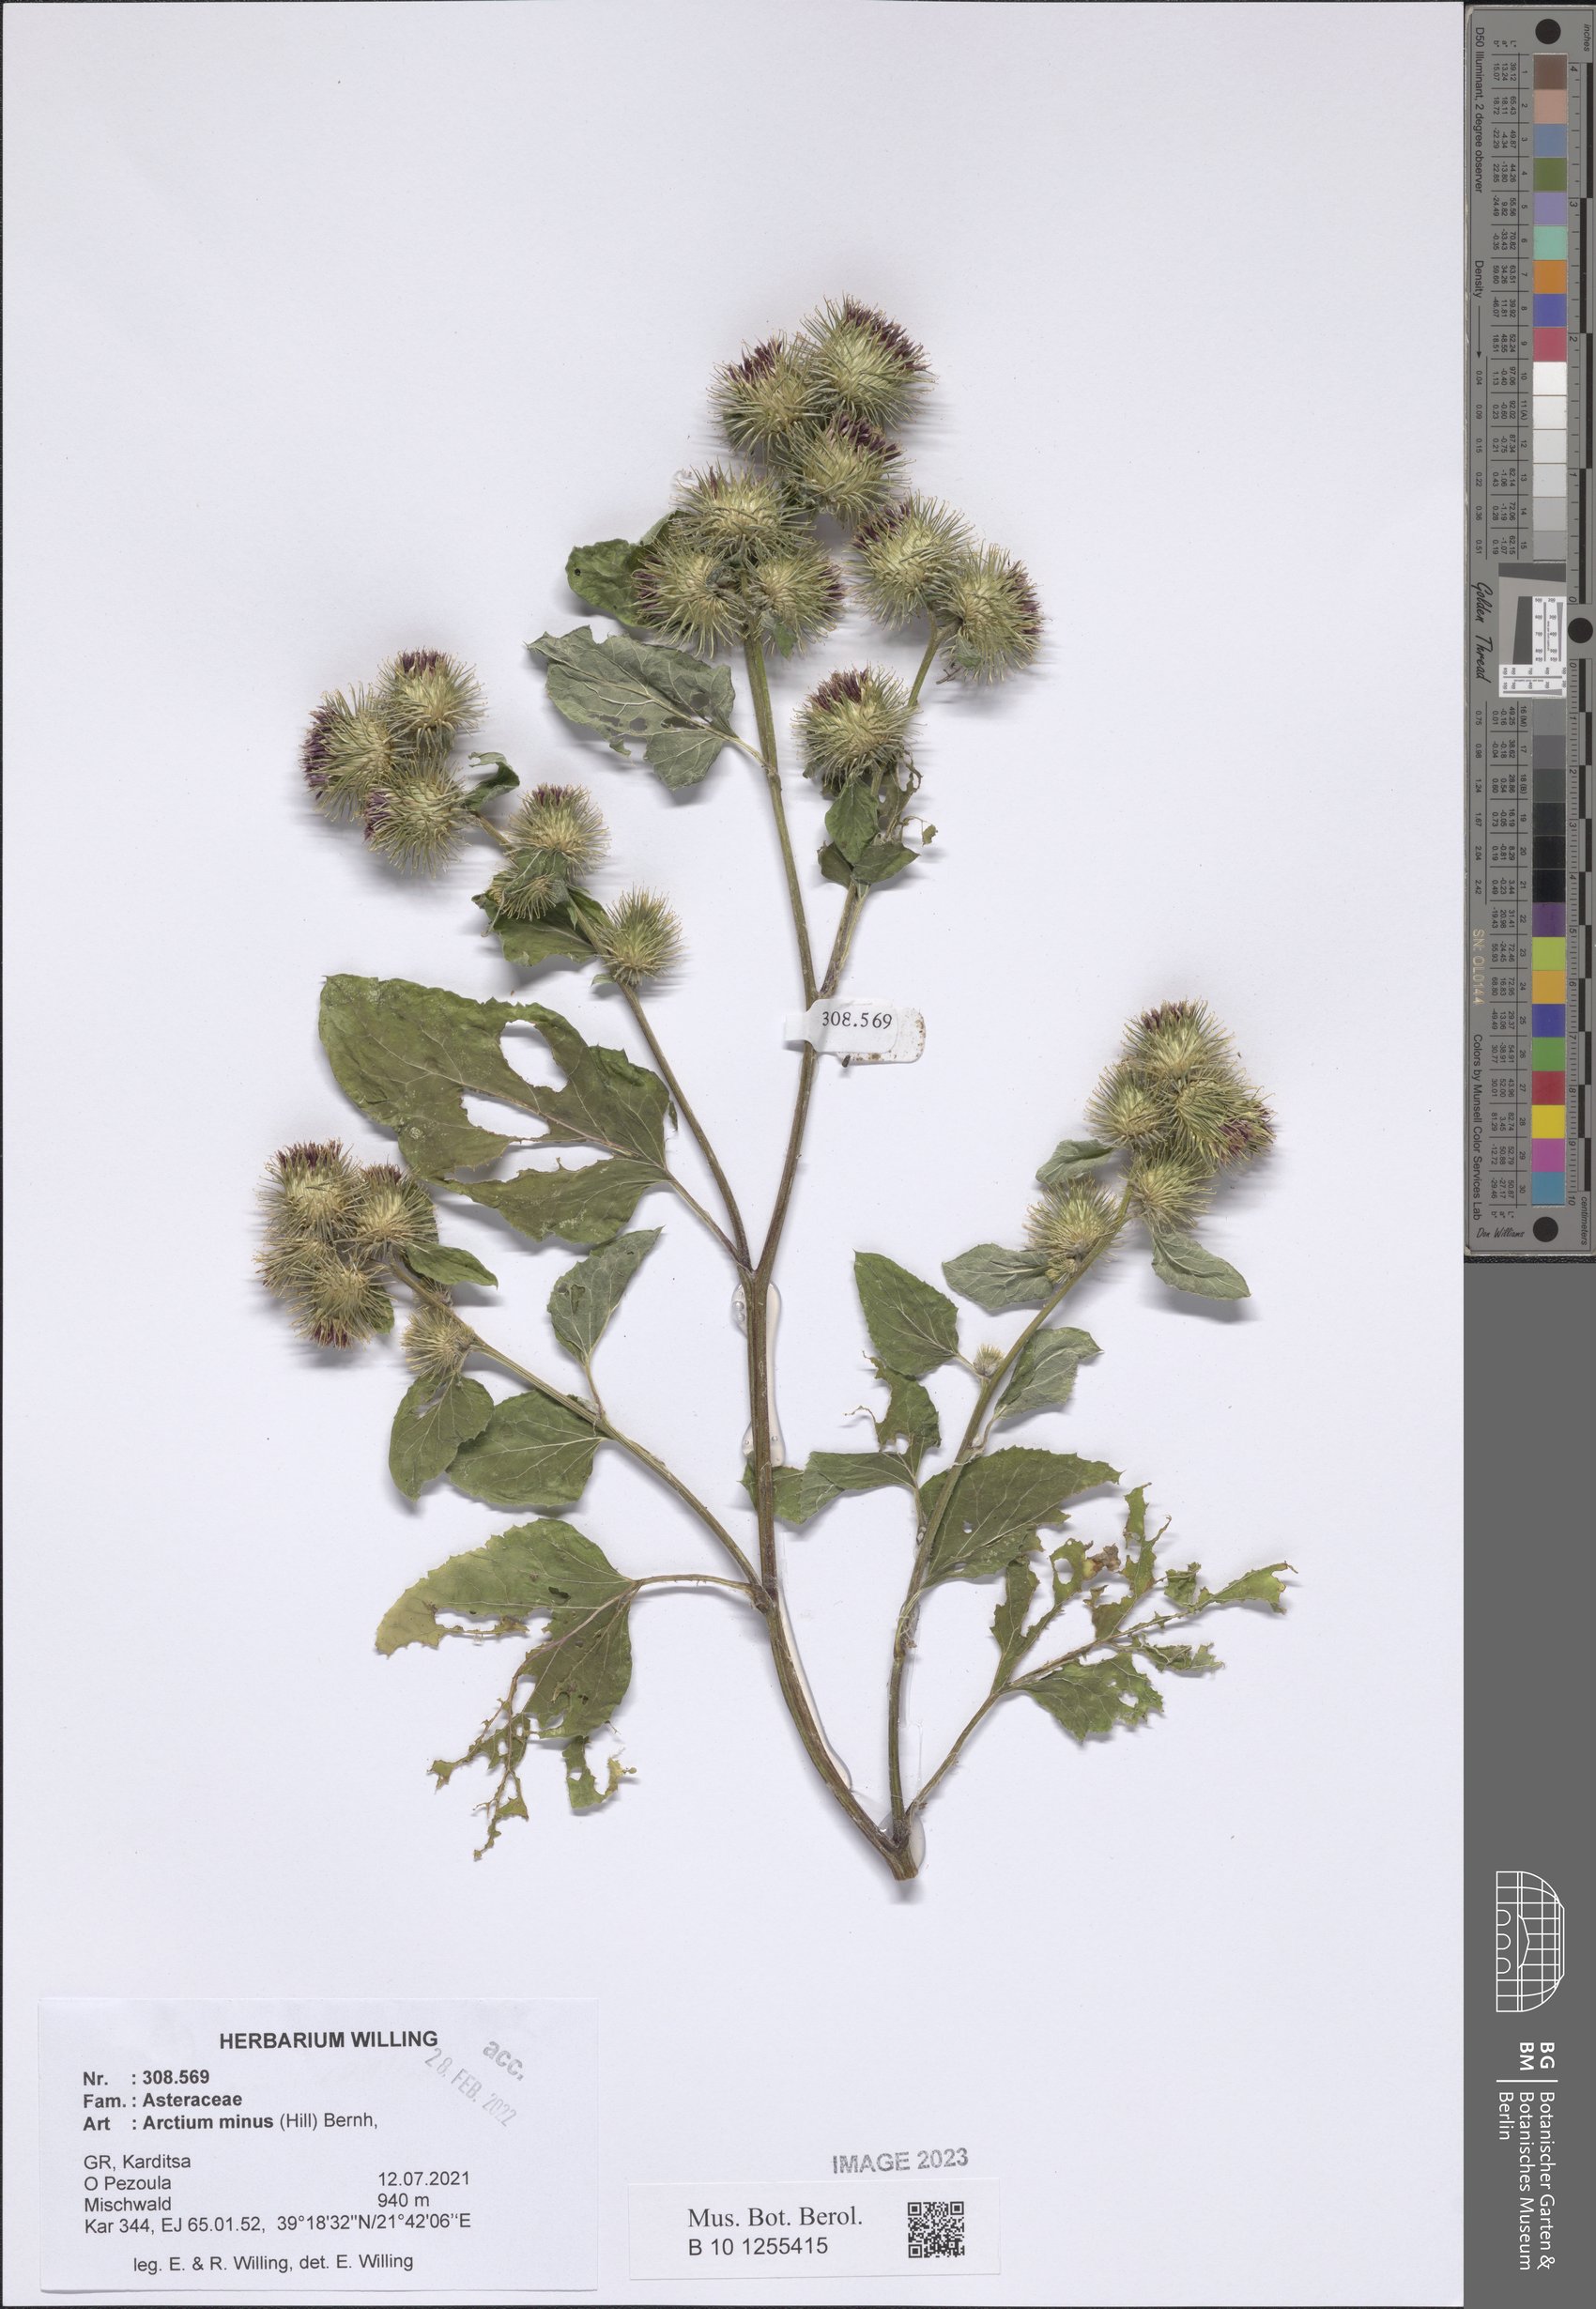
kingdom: Plantae
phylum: Tracheophyta
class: Magnoliopsida
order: Asterales
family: Asteraceae
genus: Arctium
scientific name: Arctium minus
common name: Lesser burdock
